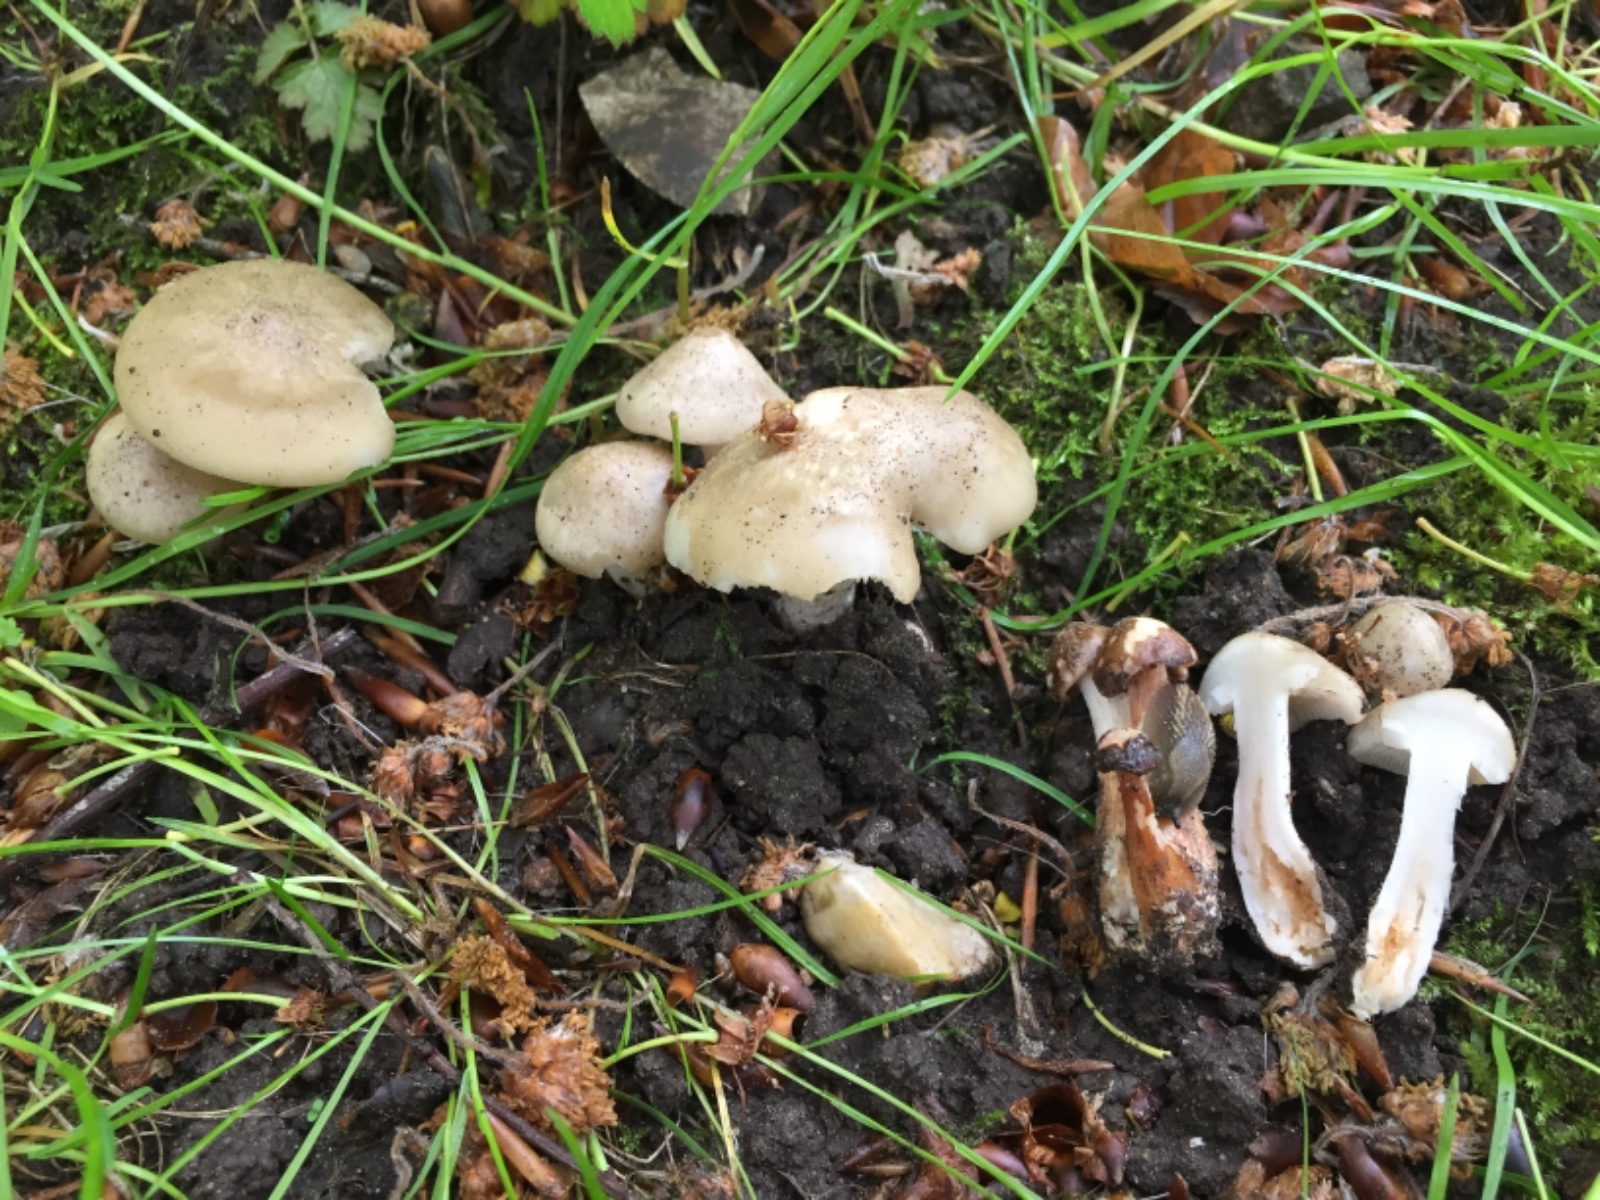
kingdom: Fungi
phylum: Basidiomycota
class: Agaricomycetes
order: Agaricales
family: Entolomataceae
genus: Entoloma
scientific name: Entoloma
